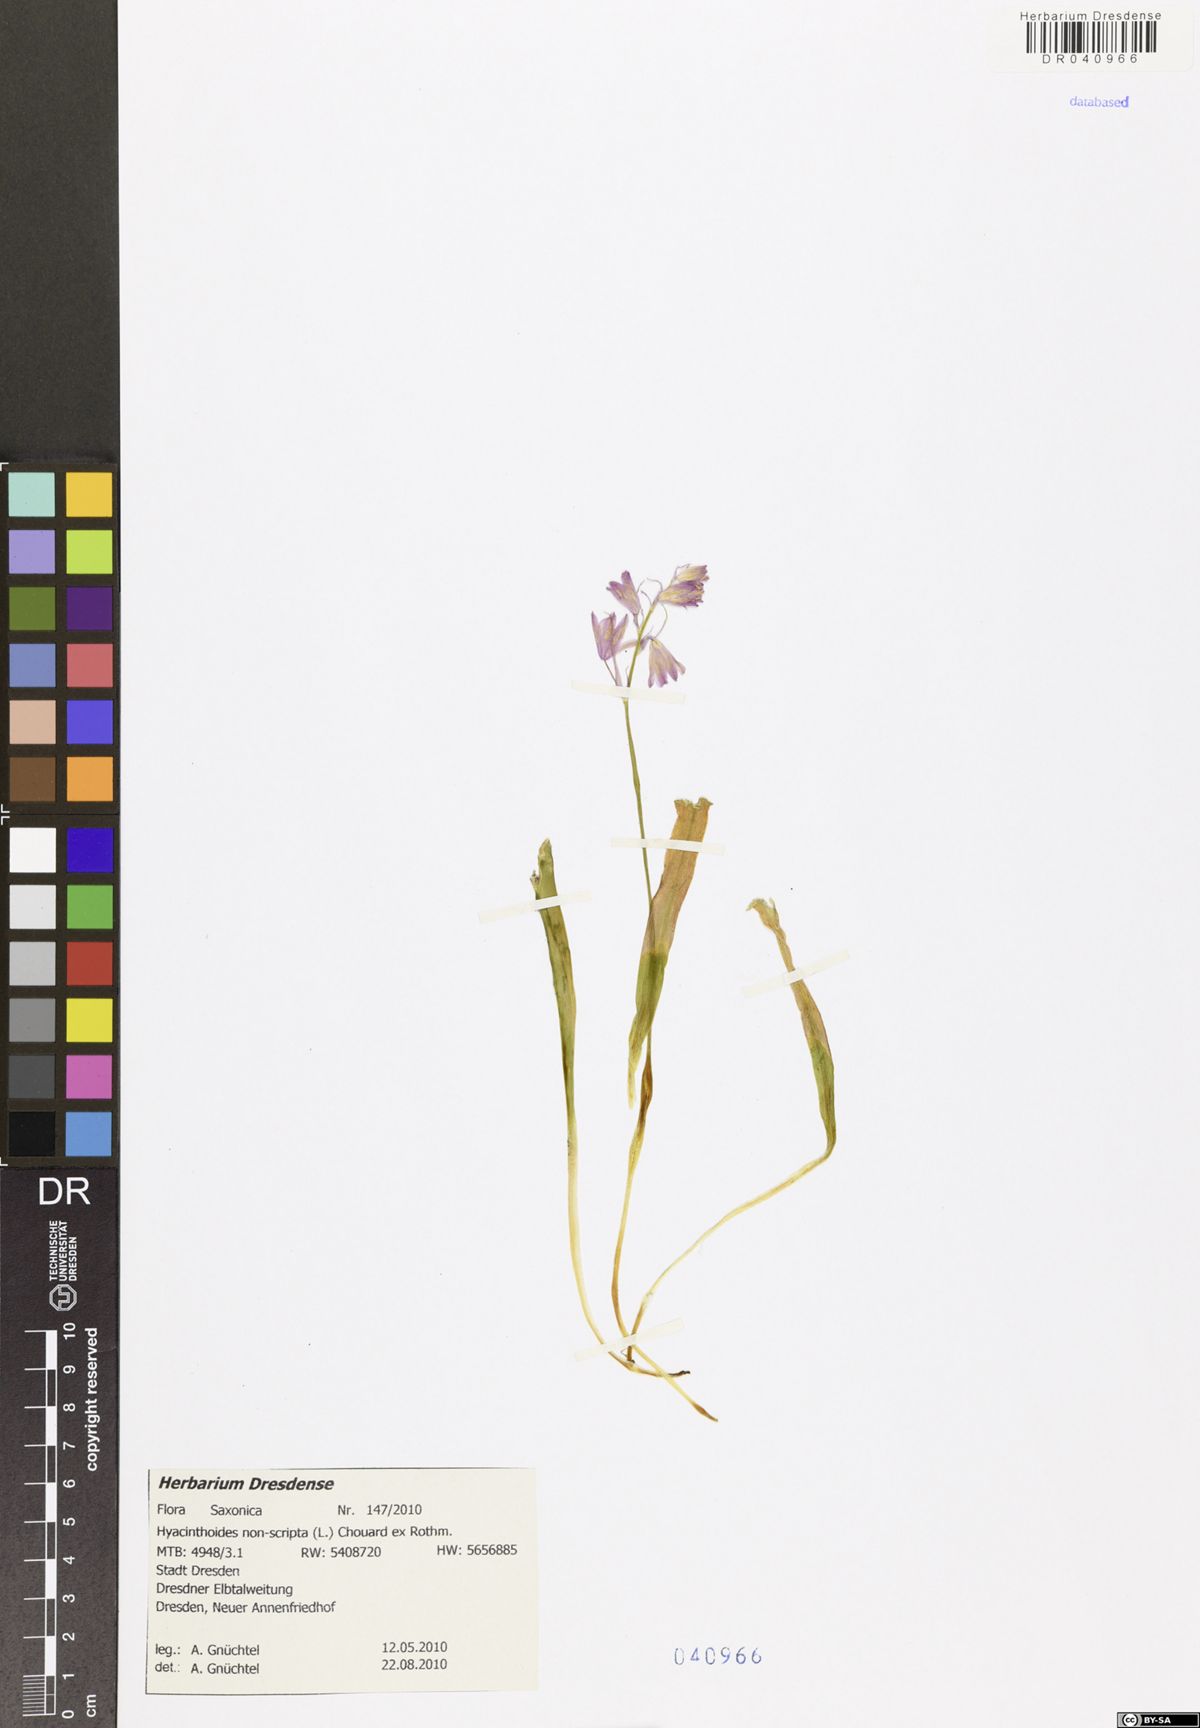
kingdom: Plantae
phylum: Tracheophyta
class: Liliopsida
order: Asparagales
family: Asparagaceae
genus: Hyacinthoides
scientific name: Hyacinthoides non-scripta
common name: Bluebell
